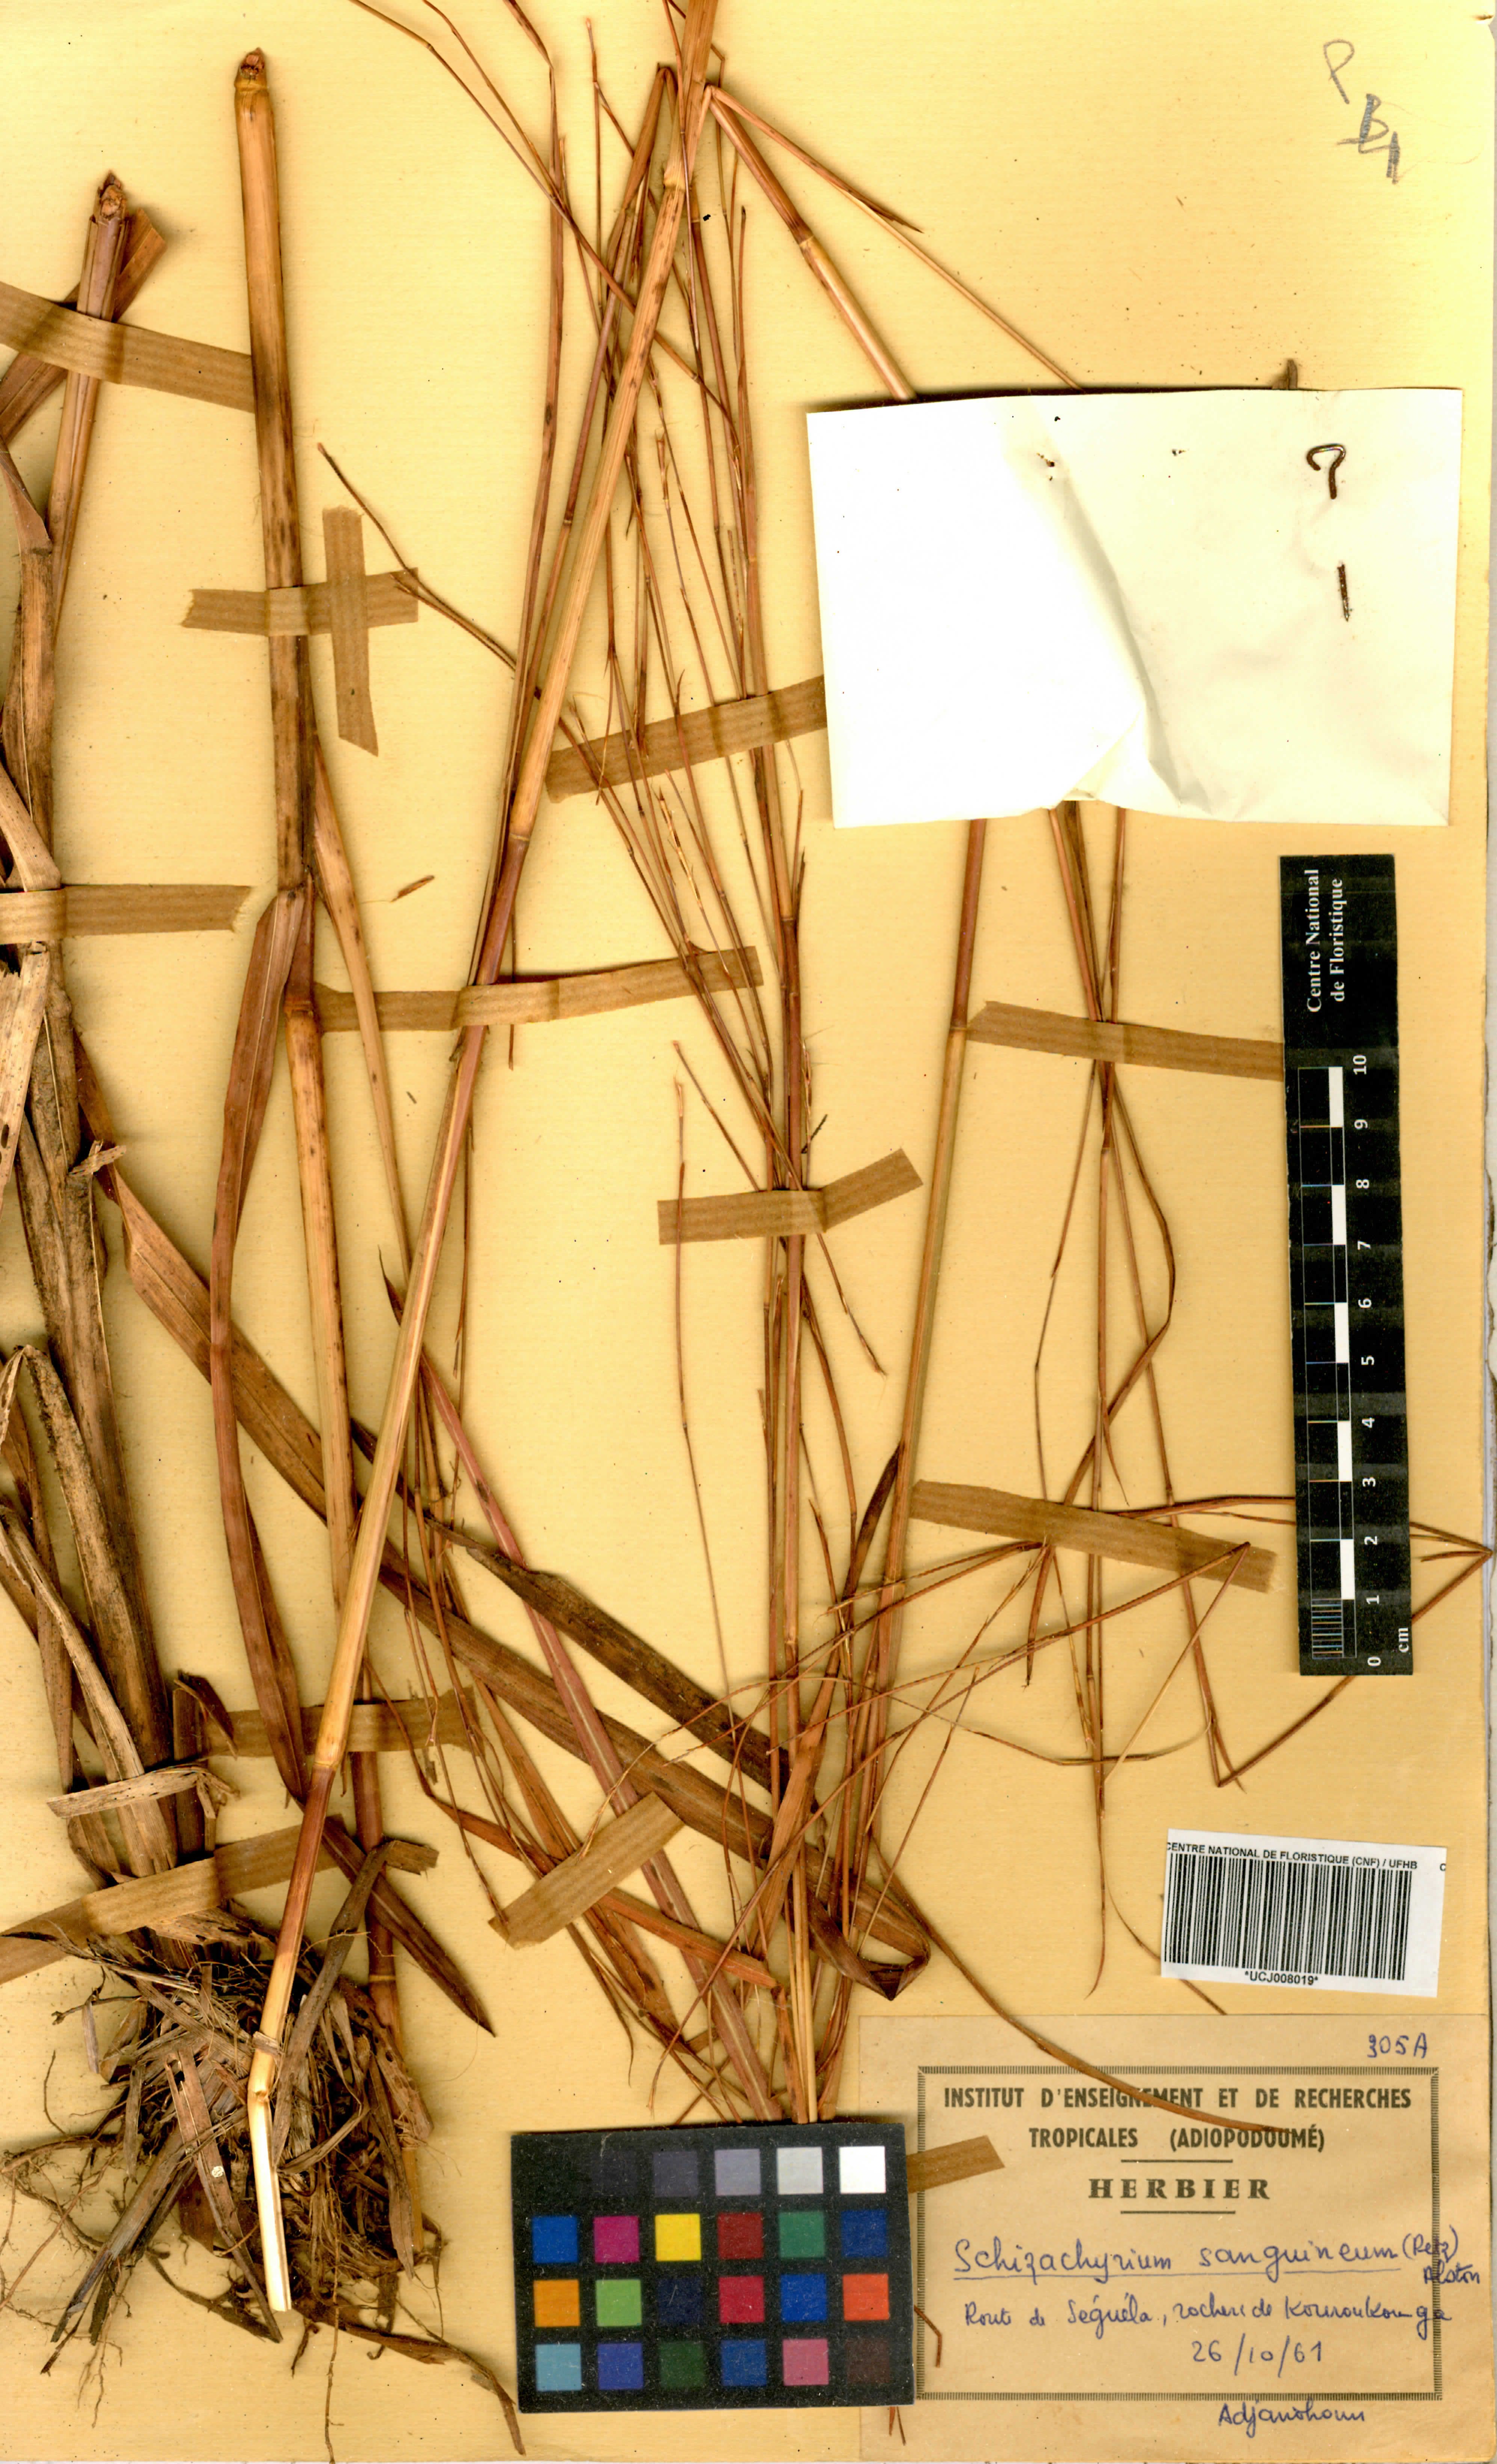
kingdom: Plantae
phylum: Tracheophyta
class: Liliopsida
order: Poales
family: Poaceae
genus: Schizachyrium
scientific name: Schizachyrium sanguineum
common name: Crimson bluestem
